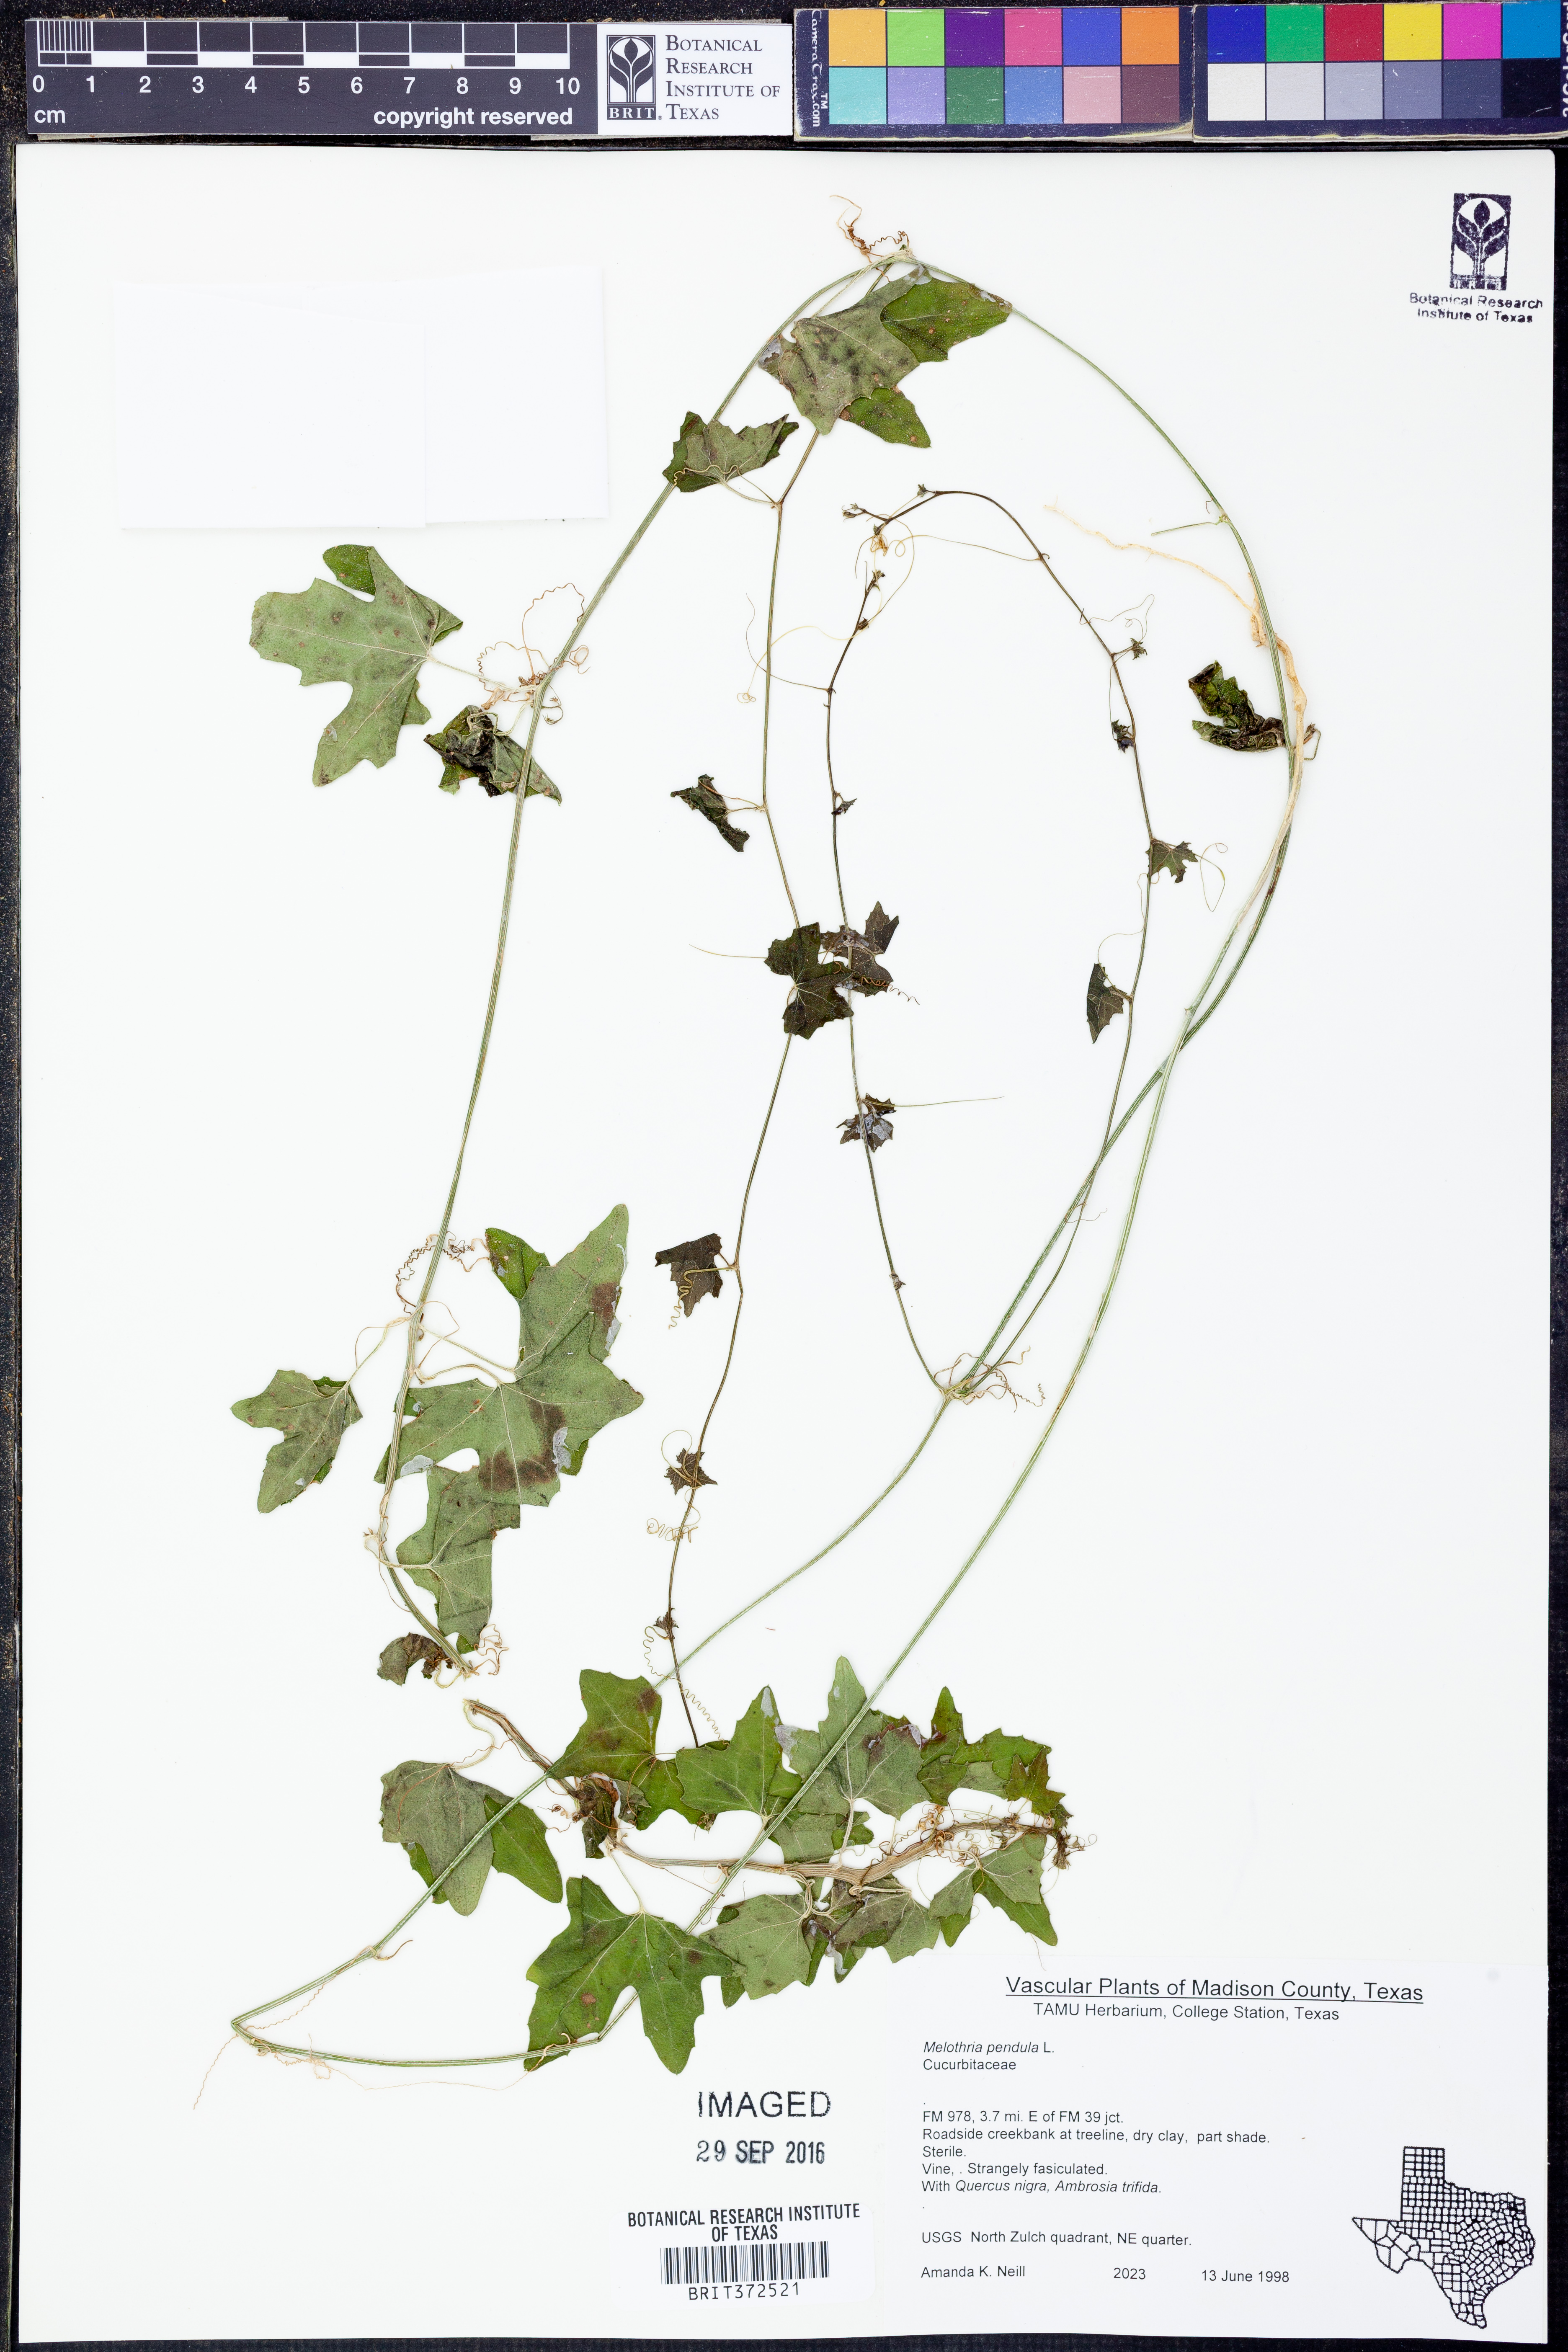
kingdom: Plantae
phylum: Tracheophyta
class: Magnoliopsida
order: Cucurbitales
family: Cucurbitaceae
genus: Melothria
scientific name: Melothria pendula
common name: Creeping-cucumber
